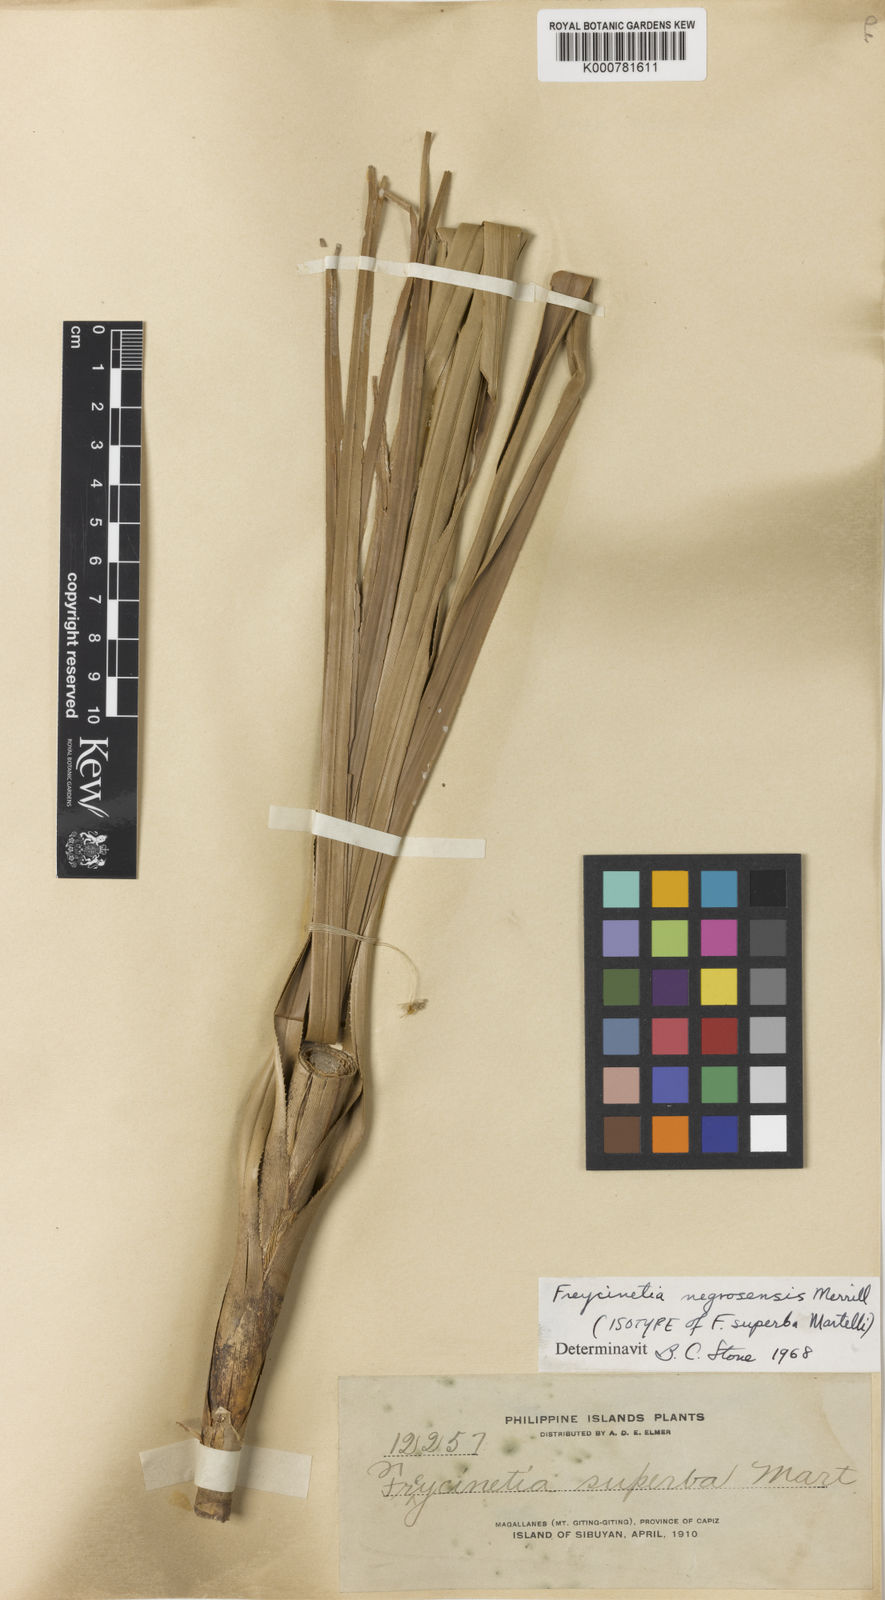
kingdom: Plantae
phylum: Tracheophyta
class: Liliopsida
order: Pandanales
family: Pandanaceae
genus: Freycinetia
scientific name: Freycinetia negrosensis
